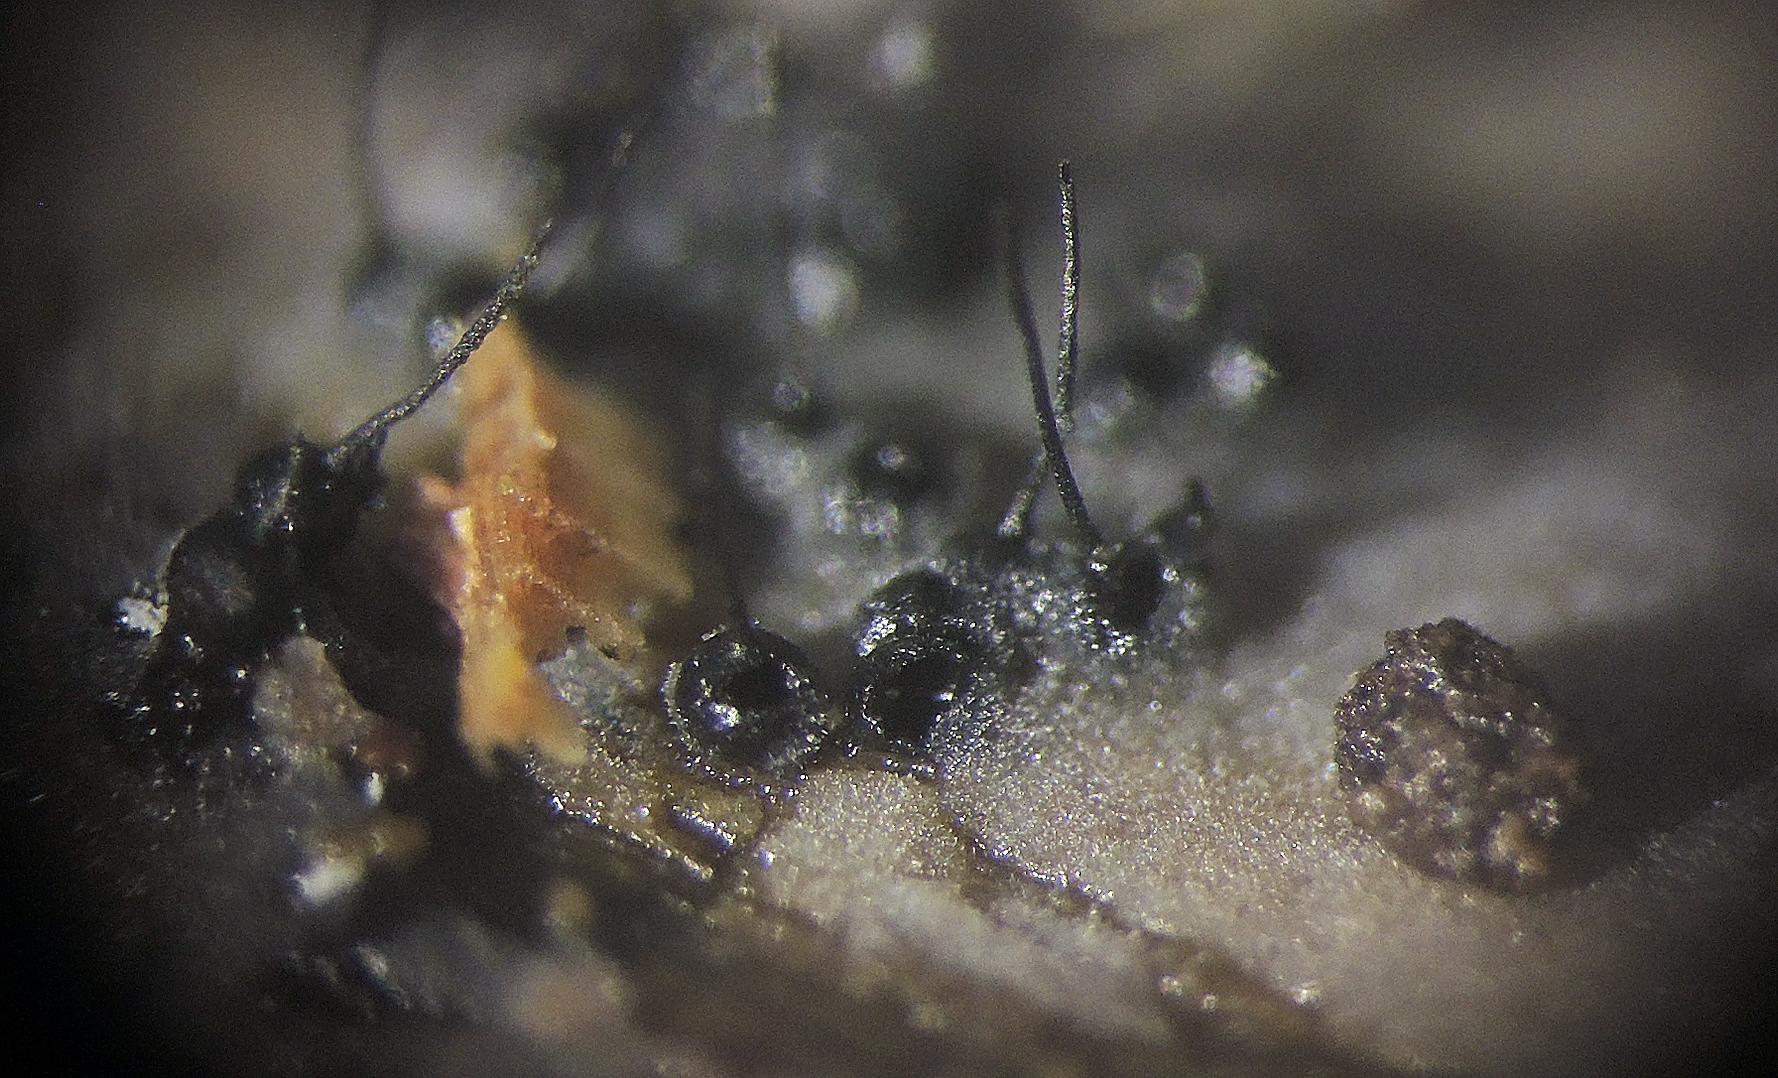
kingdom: Fungi
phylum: Ascomycota
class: Sordariomycetes
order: Ophiostomatales
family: Ophiostomataceae
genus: Sporothrix
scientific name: Sporothrix polyporicola
